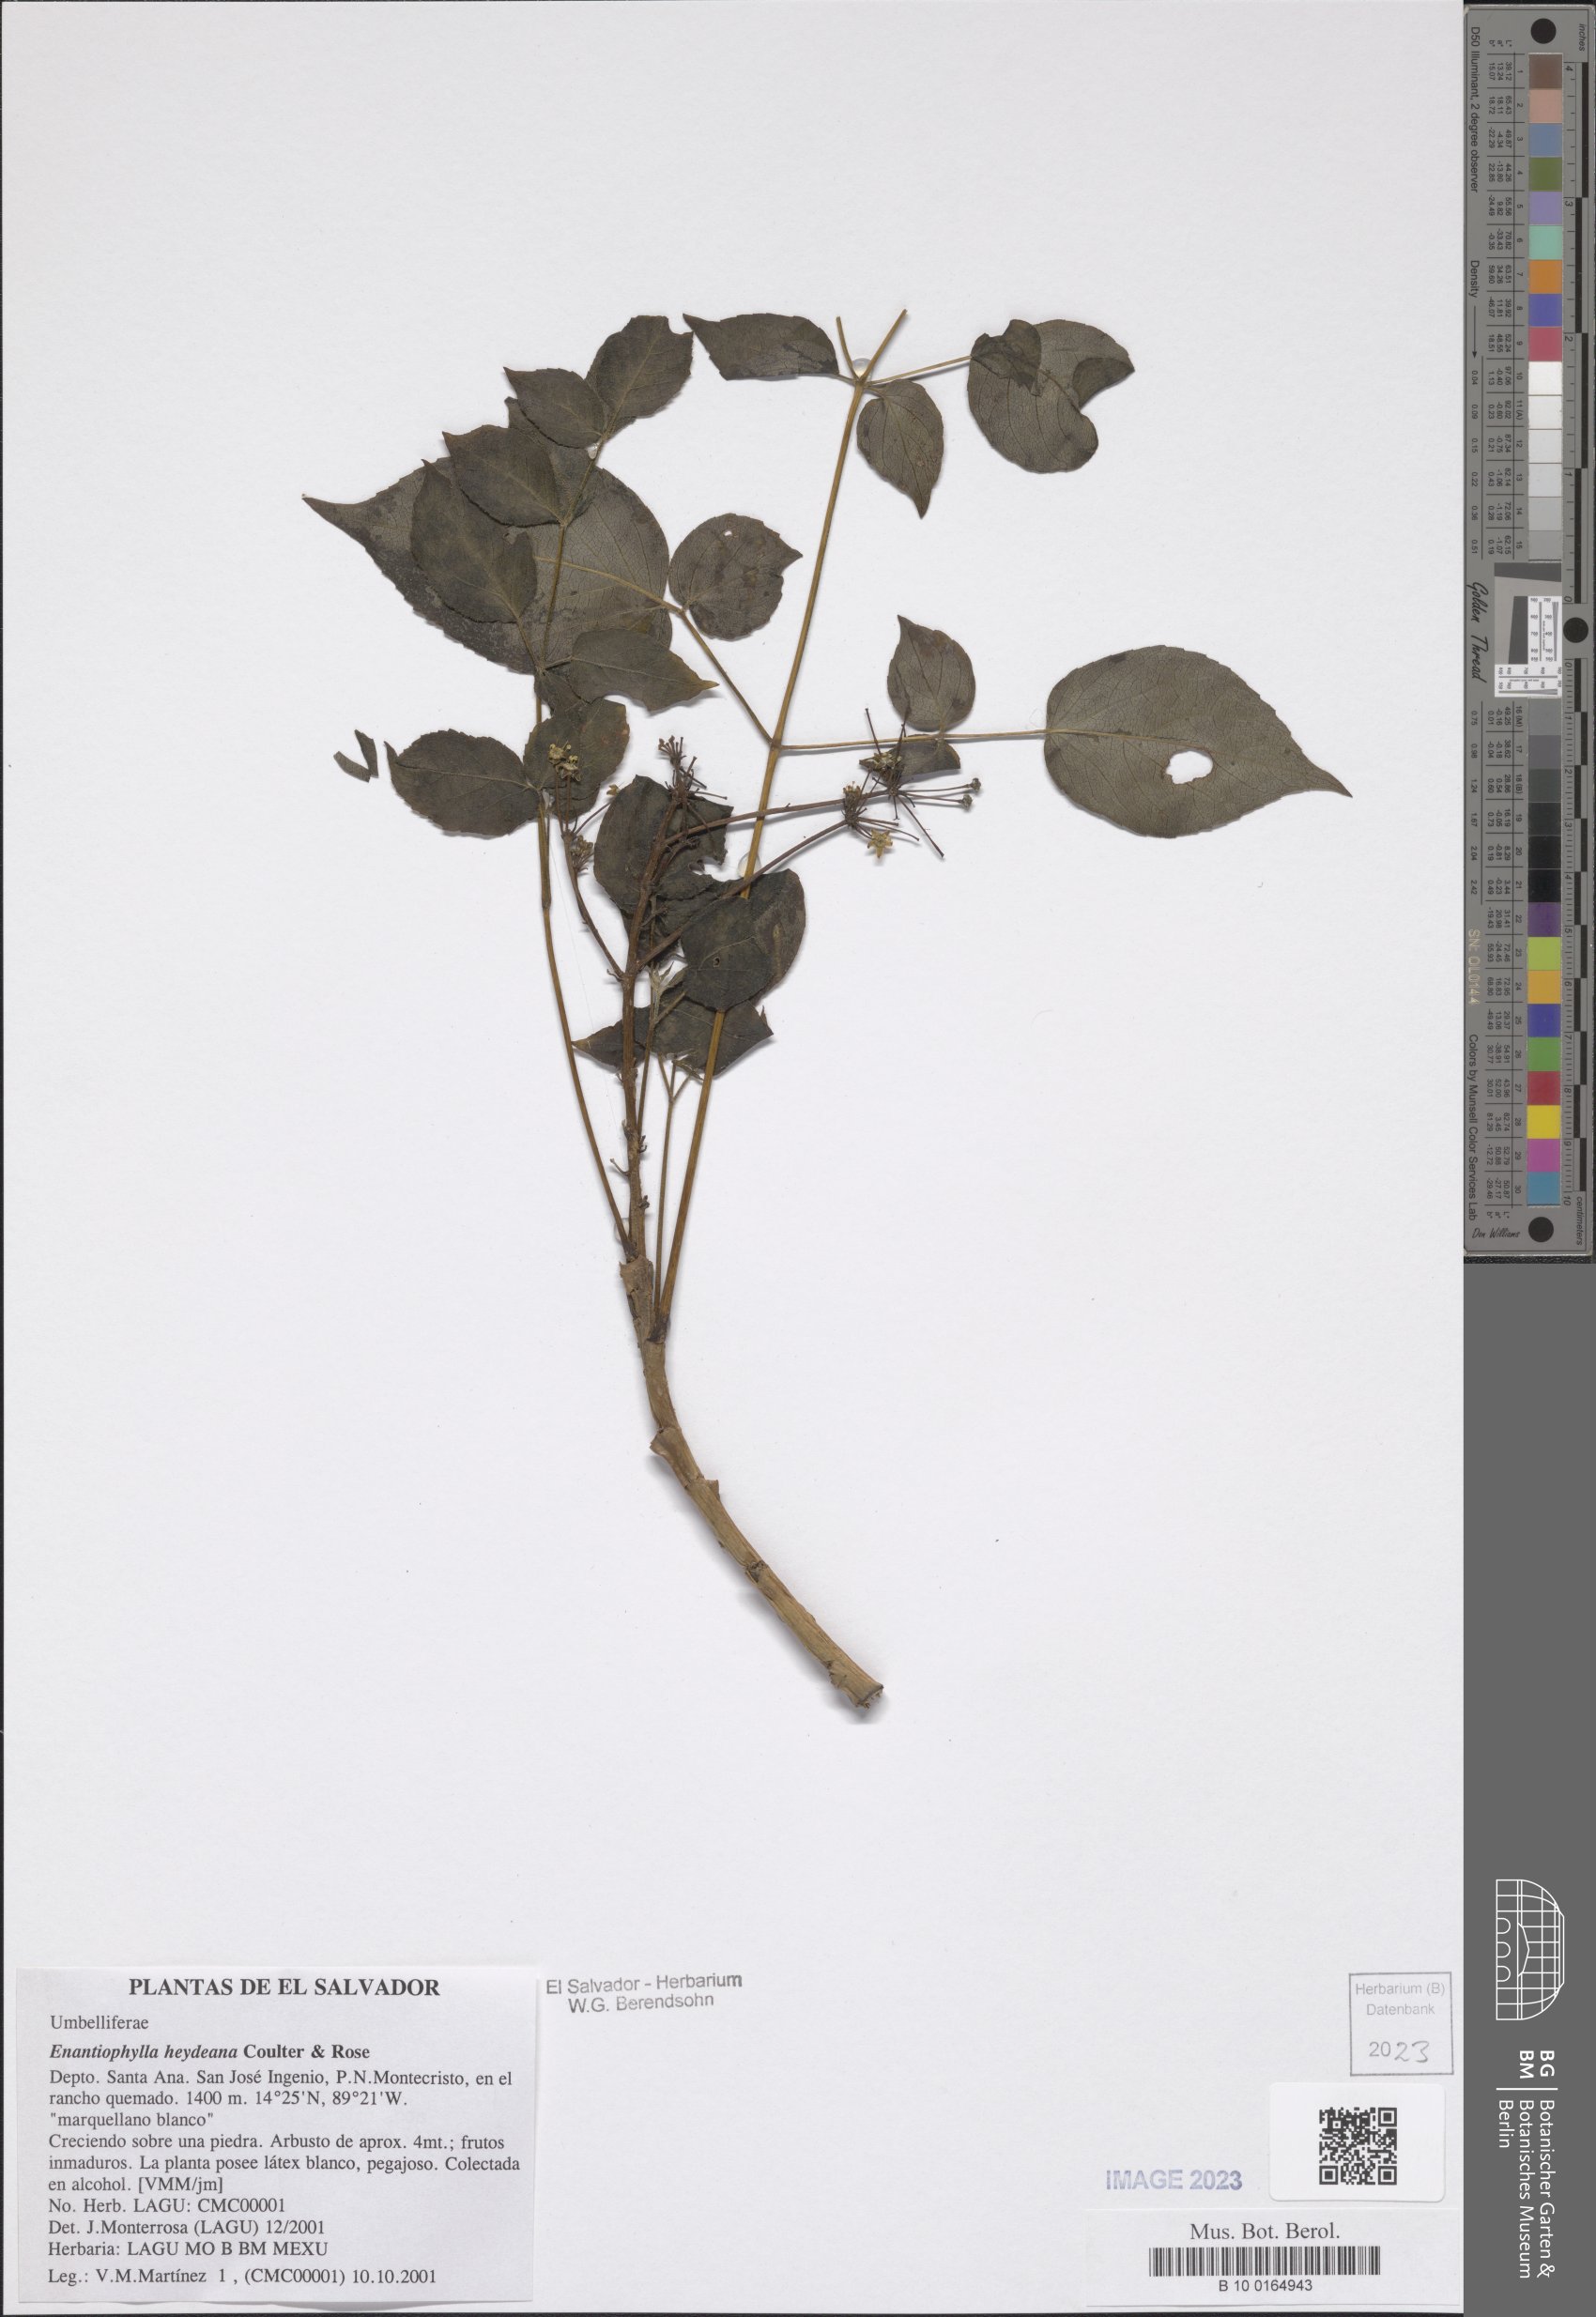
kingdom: Plantae
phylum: Tracheophyta
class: Magnoliopsida
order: Apiales
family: Apiaceae
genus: Enantiophylla
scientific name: Enantiophylla heydeana
